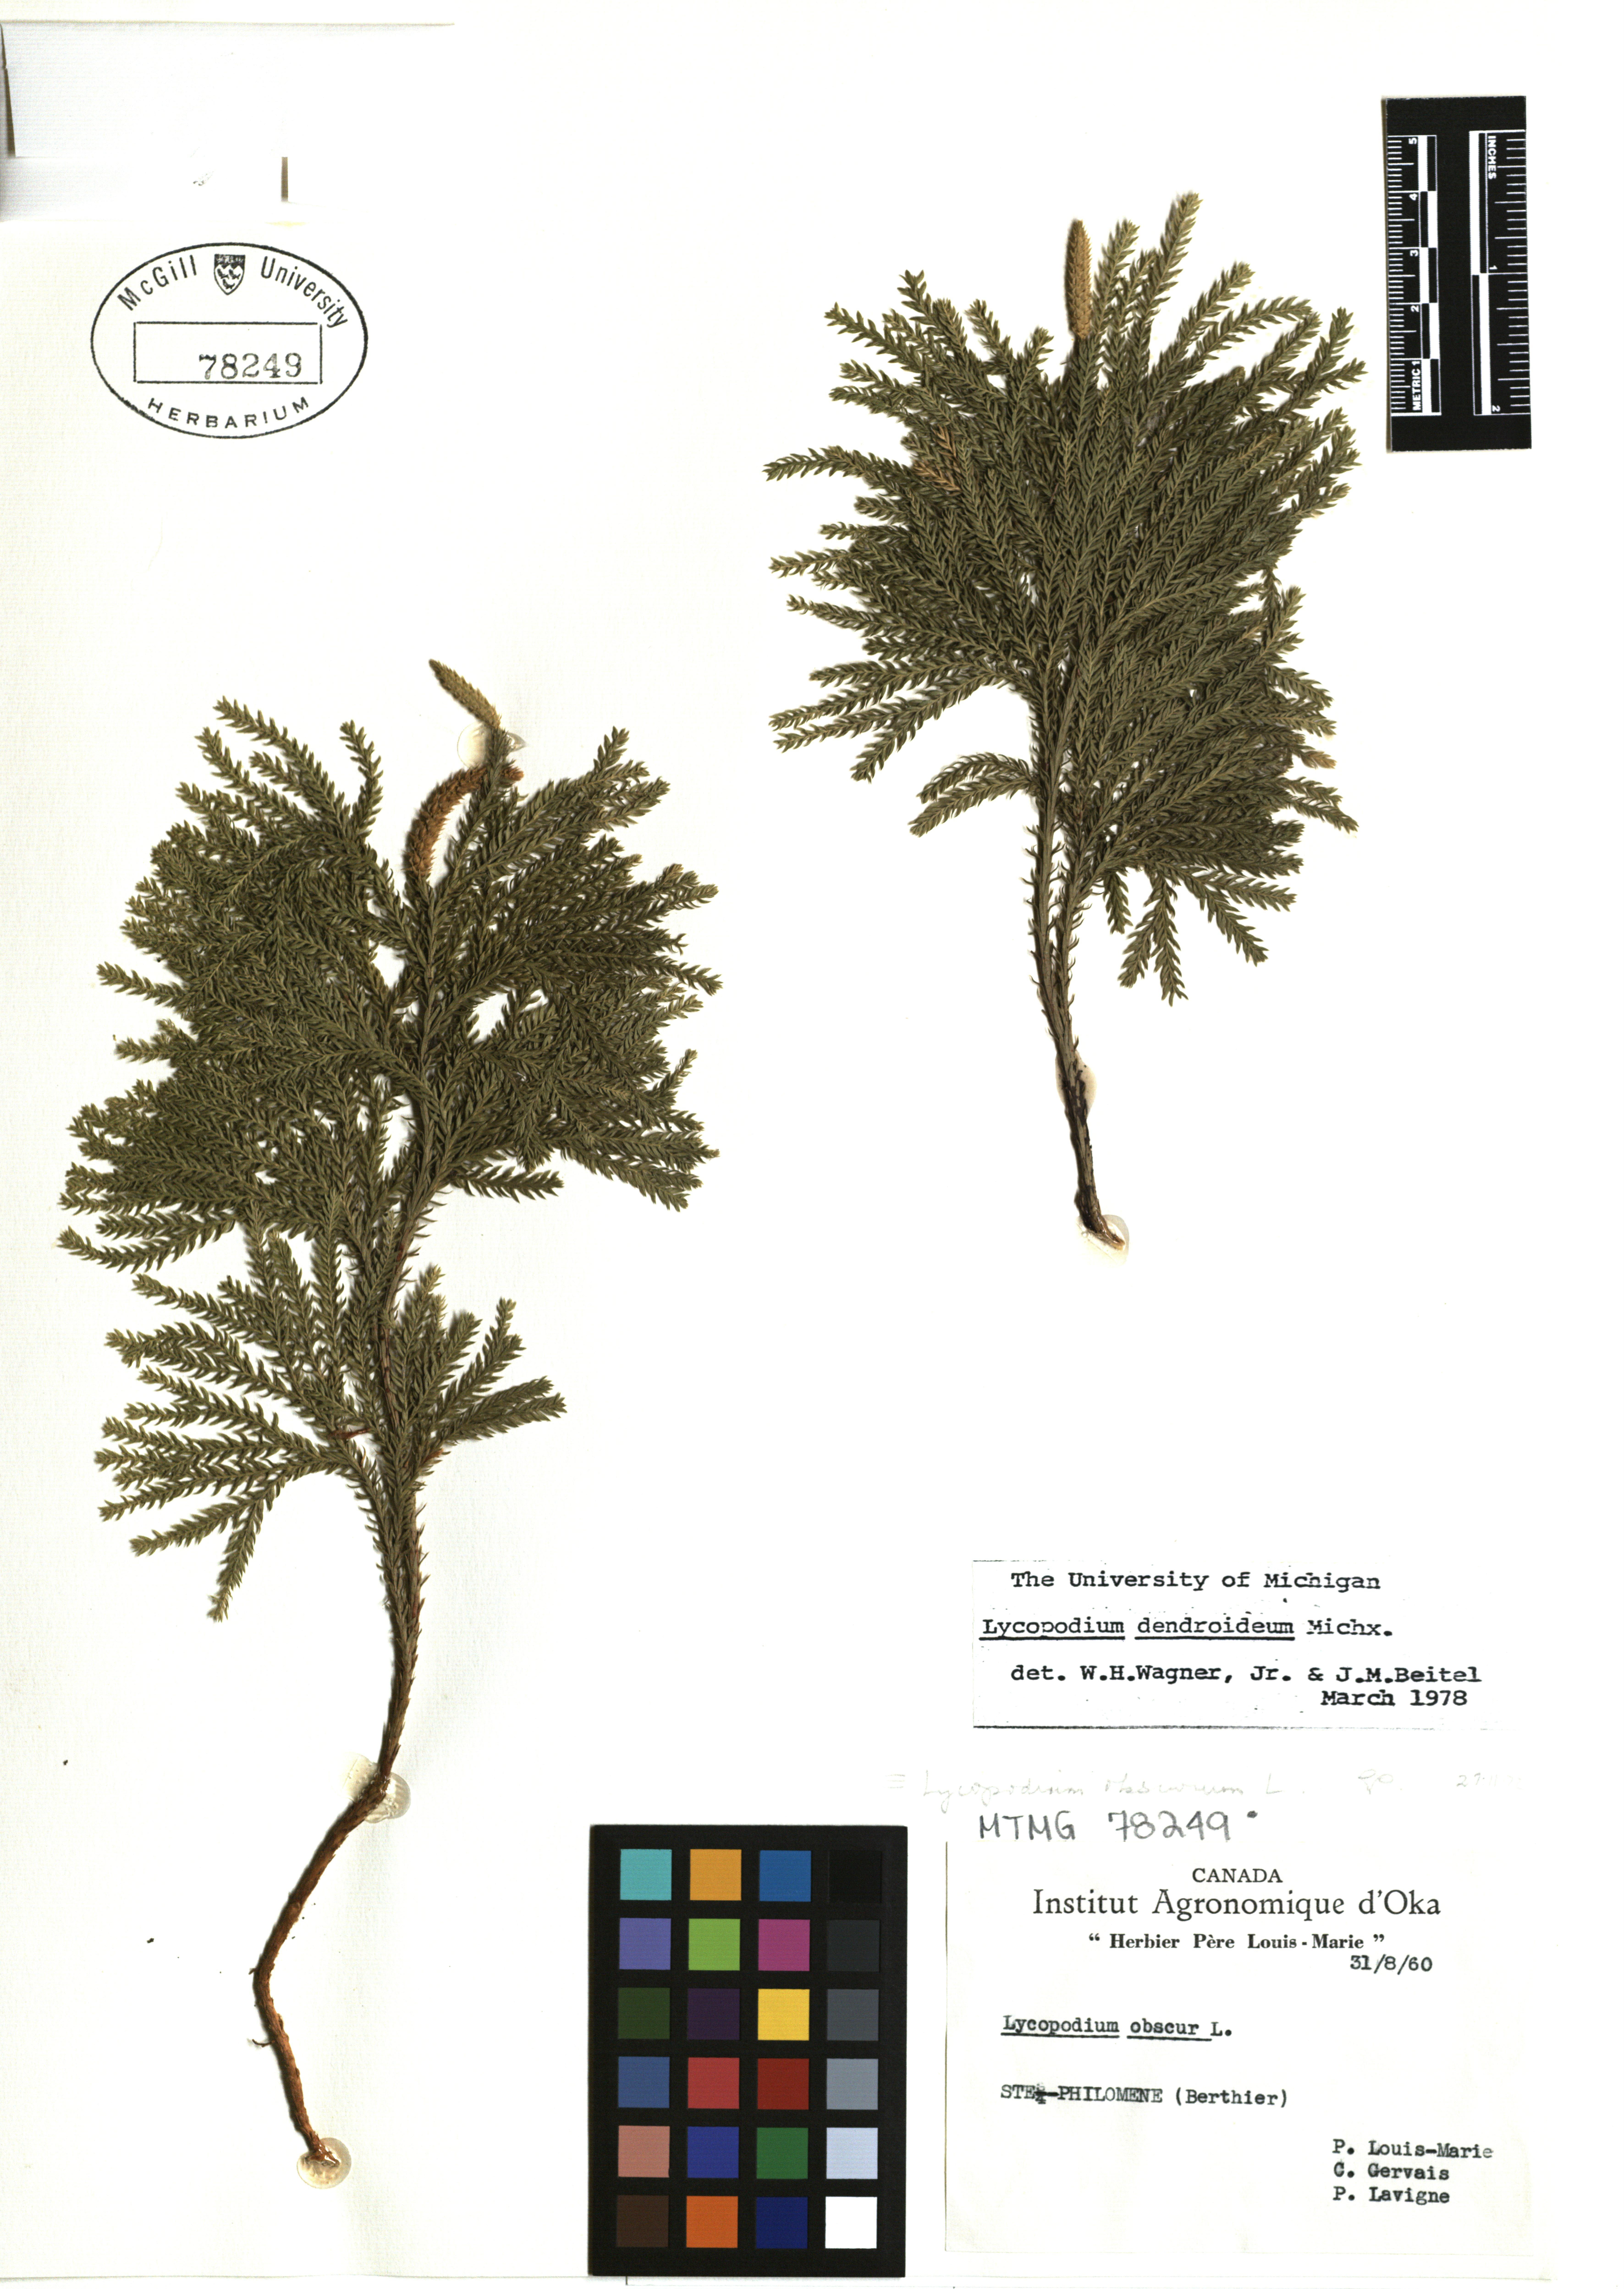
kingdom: Plantae
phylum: Tracheophyta
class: Lycopodiopsida
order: Lycopodiales
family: Lycopodiaceae
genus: Dendrolycopodium
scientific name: Dendrolycopodium dendroideum
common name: Northern tree-clubmoss
